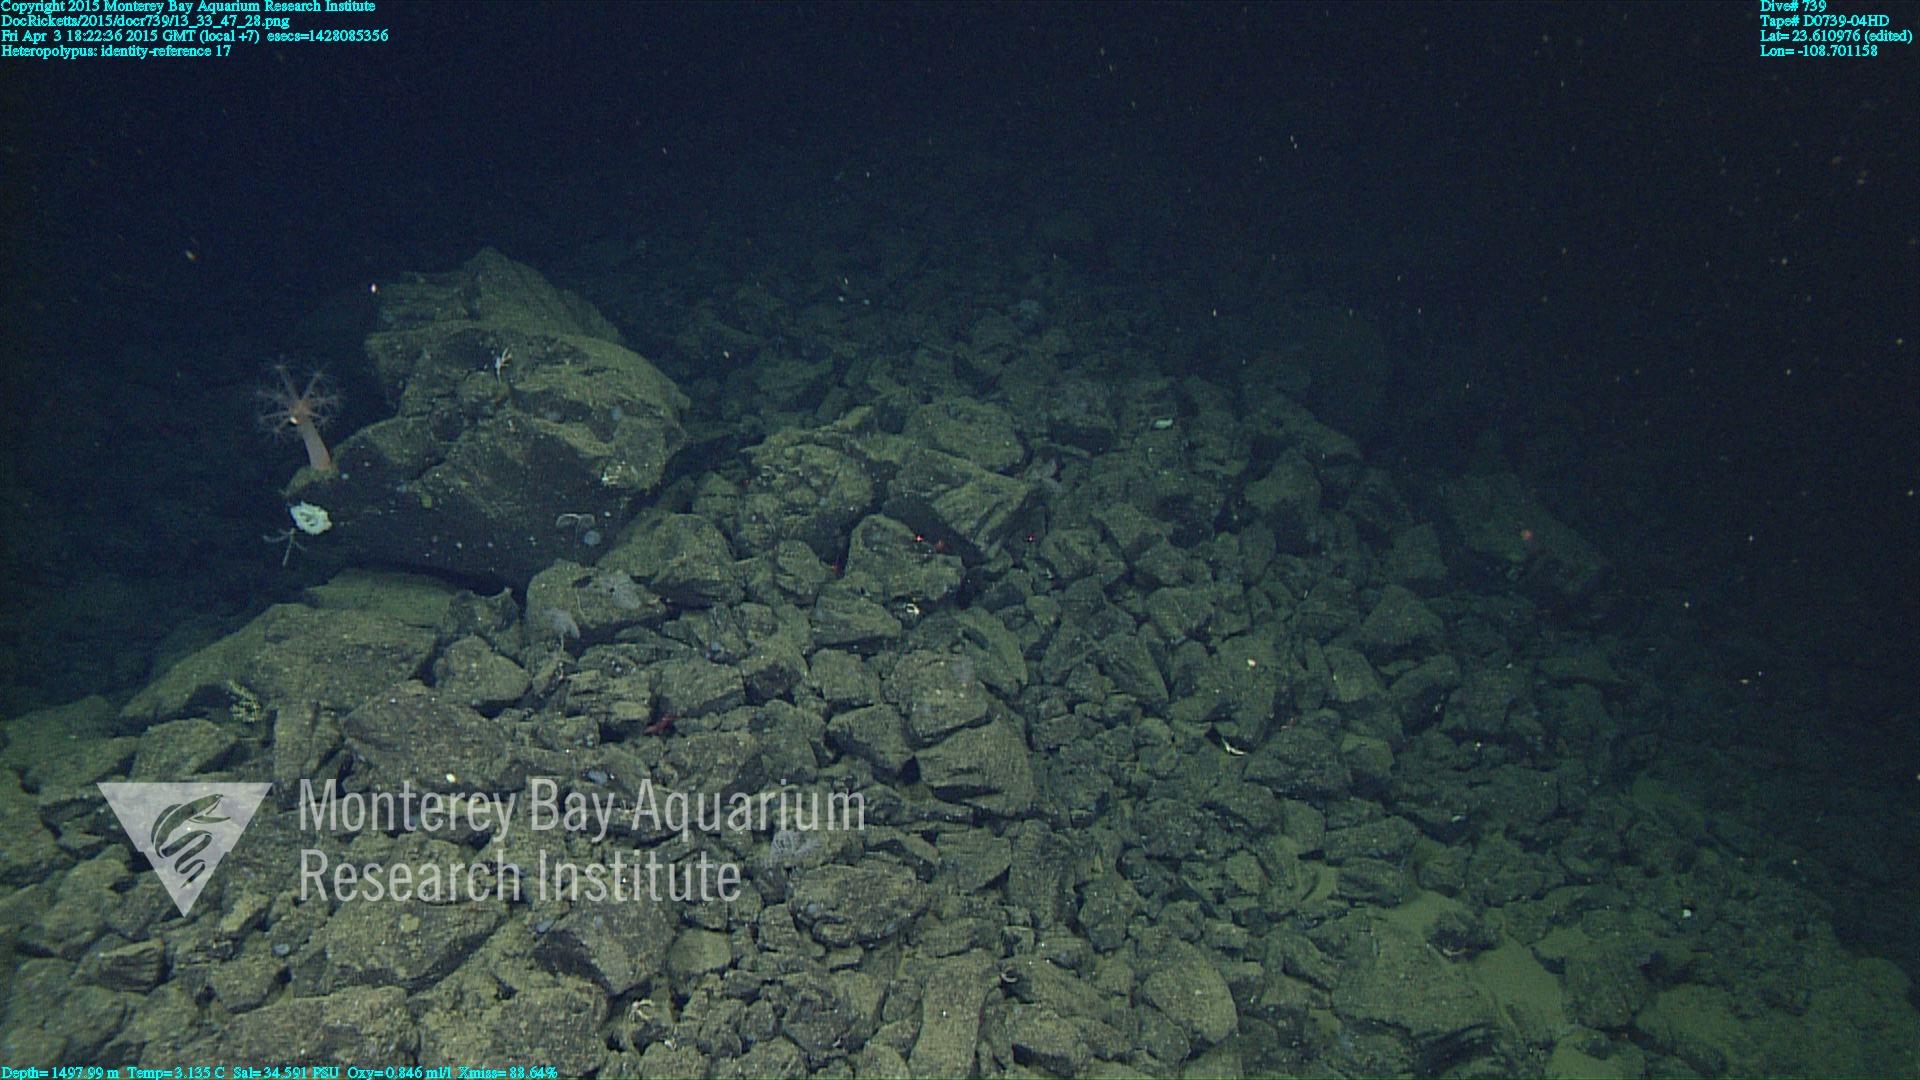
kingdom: Animalia
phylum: Cnidaria
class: Anthozoa
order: Scleralcyonacea
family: Coralliidae
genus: Heteropolypus
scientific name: Heteropolypus
